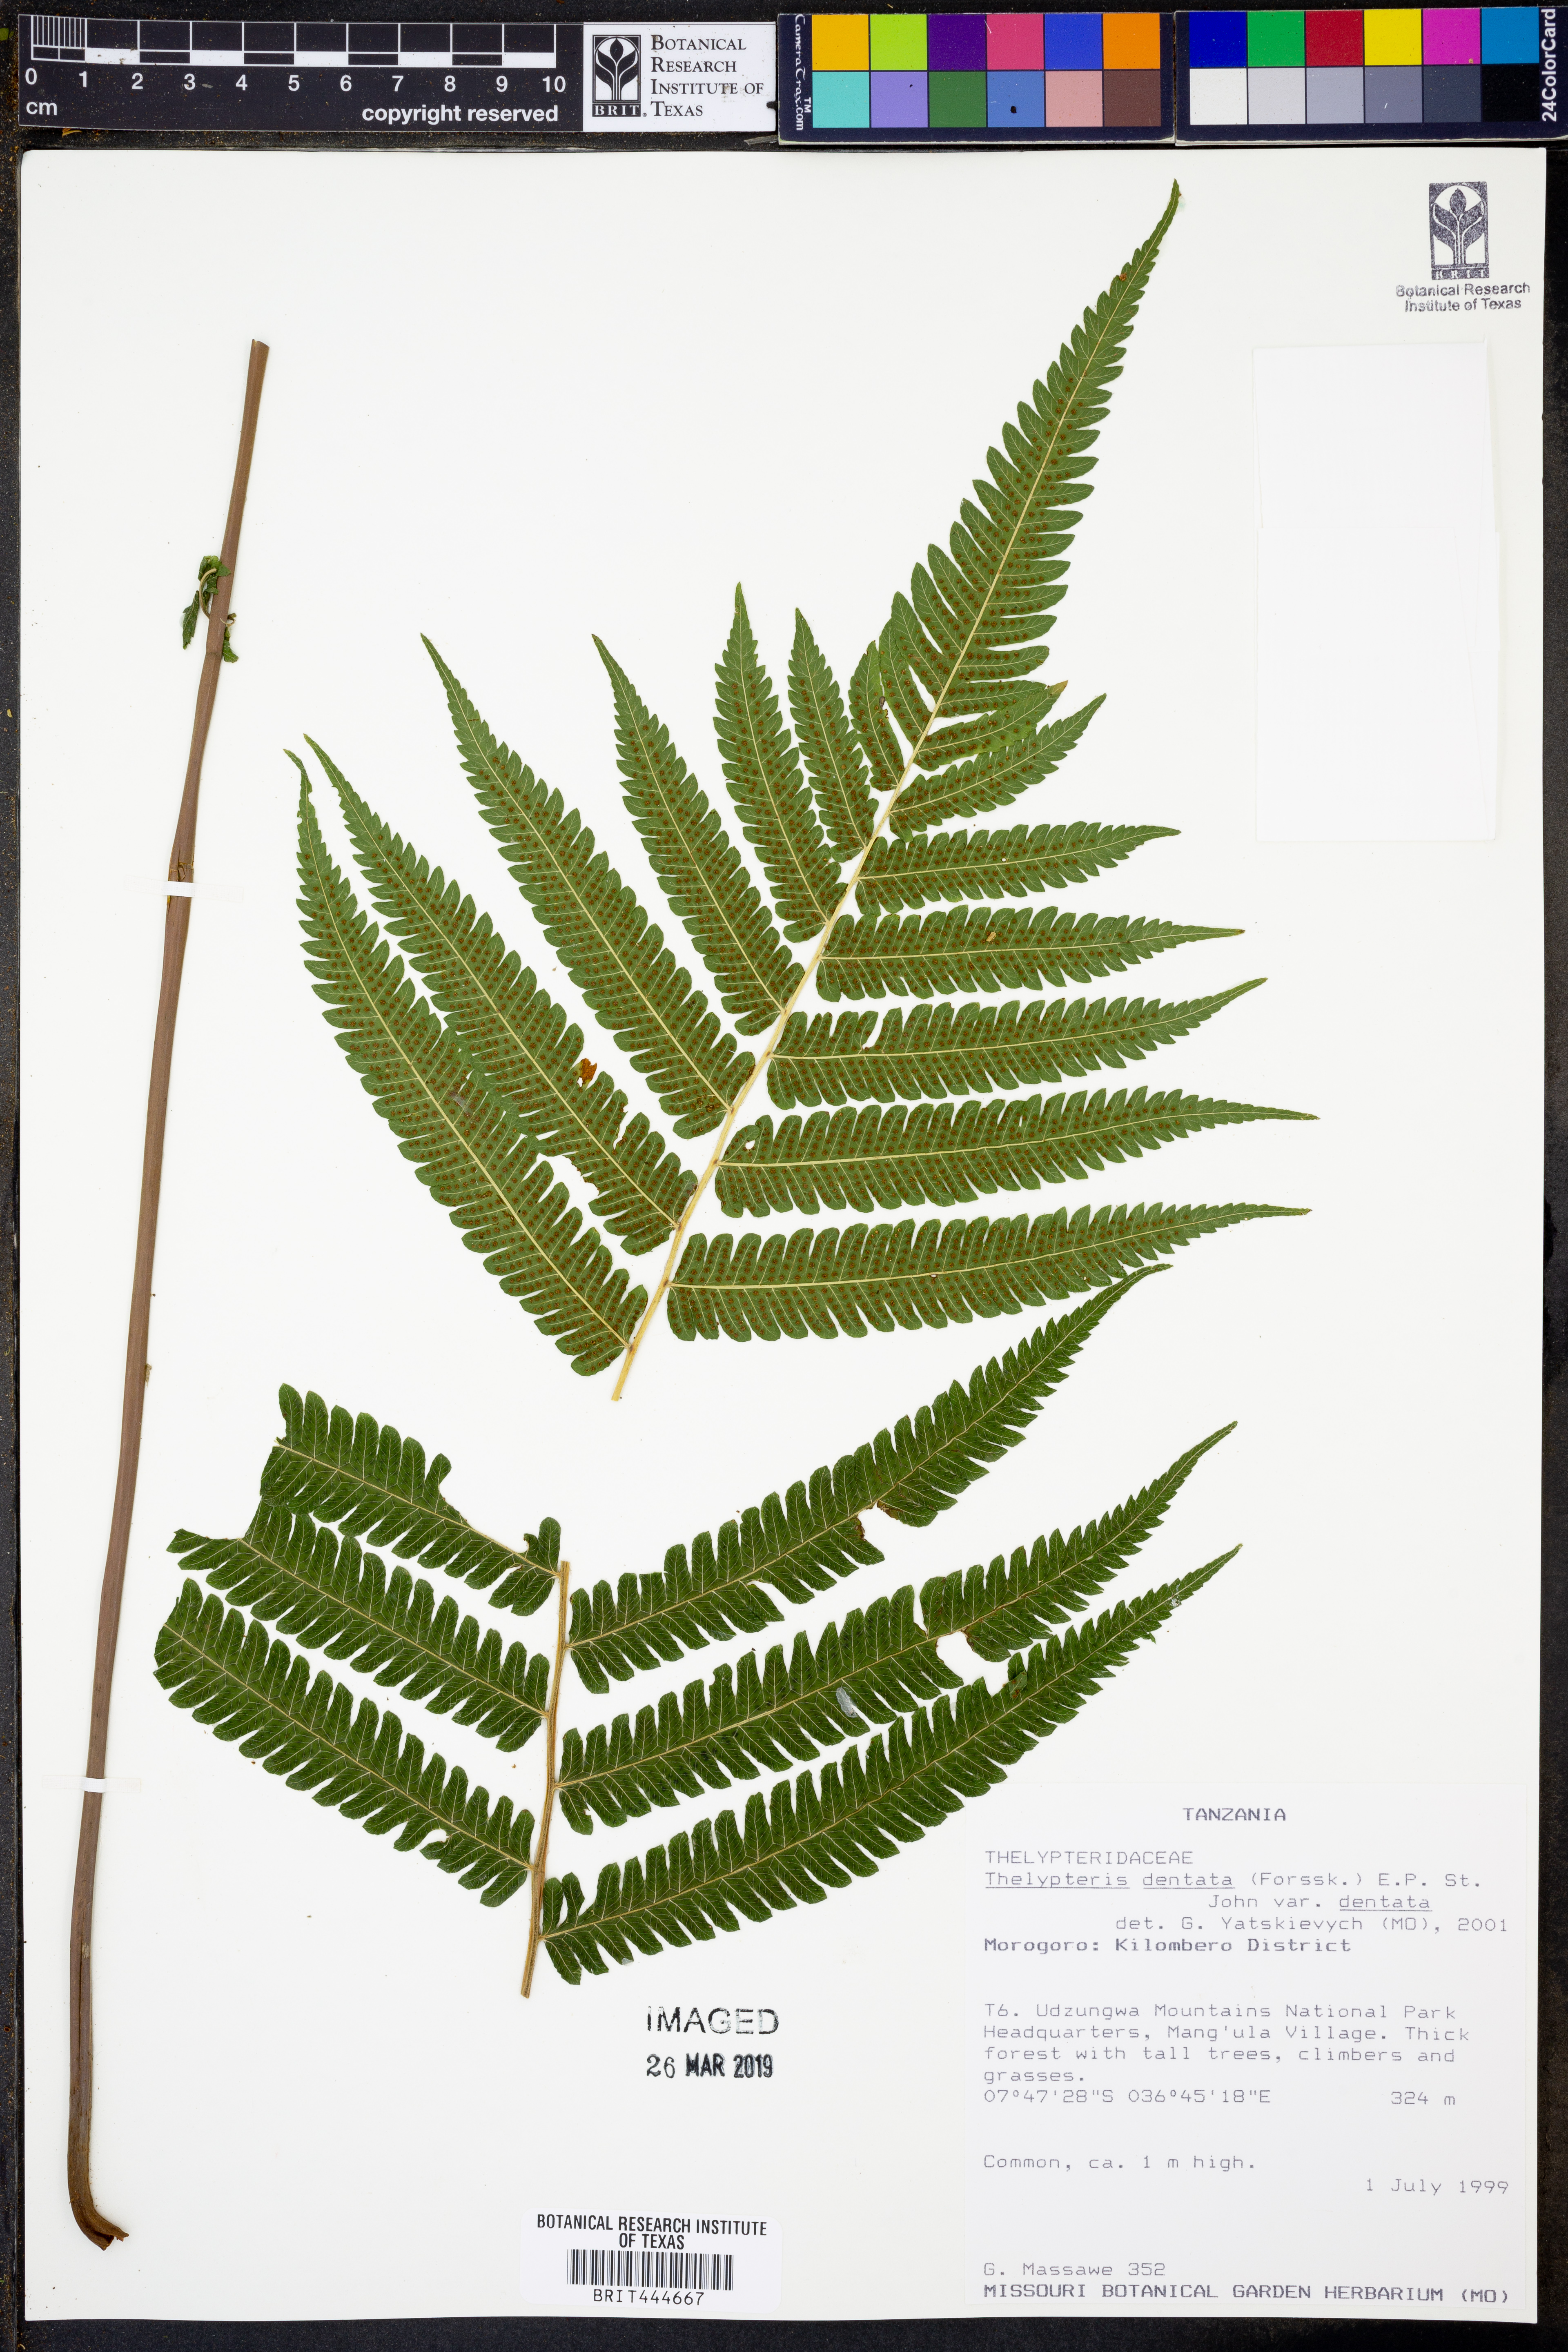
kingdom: Plantae
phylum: Tracheophyta
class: Polypodiopsida
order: Polypodiales
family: Thelypteridaceae
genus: Christella
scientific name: Christella dentata
